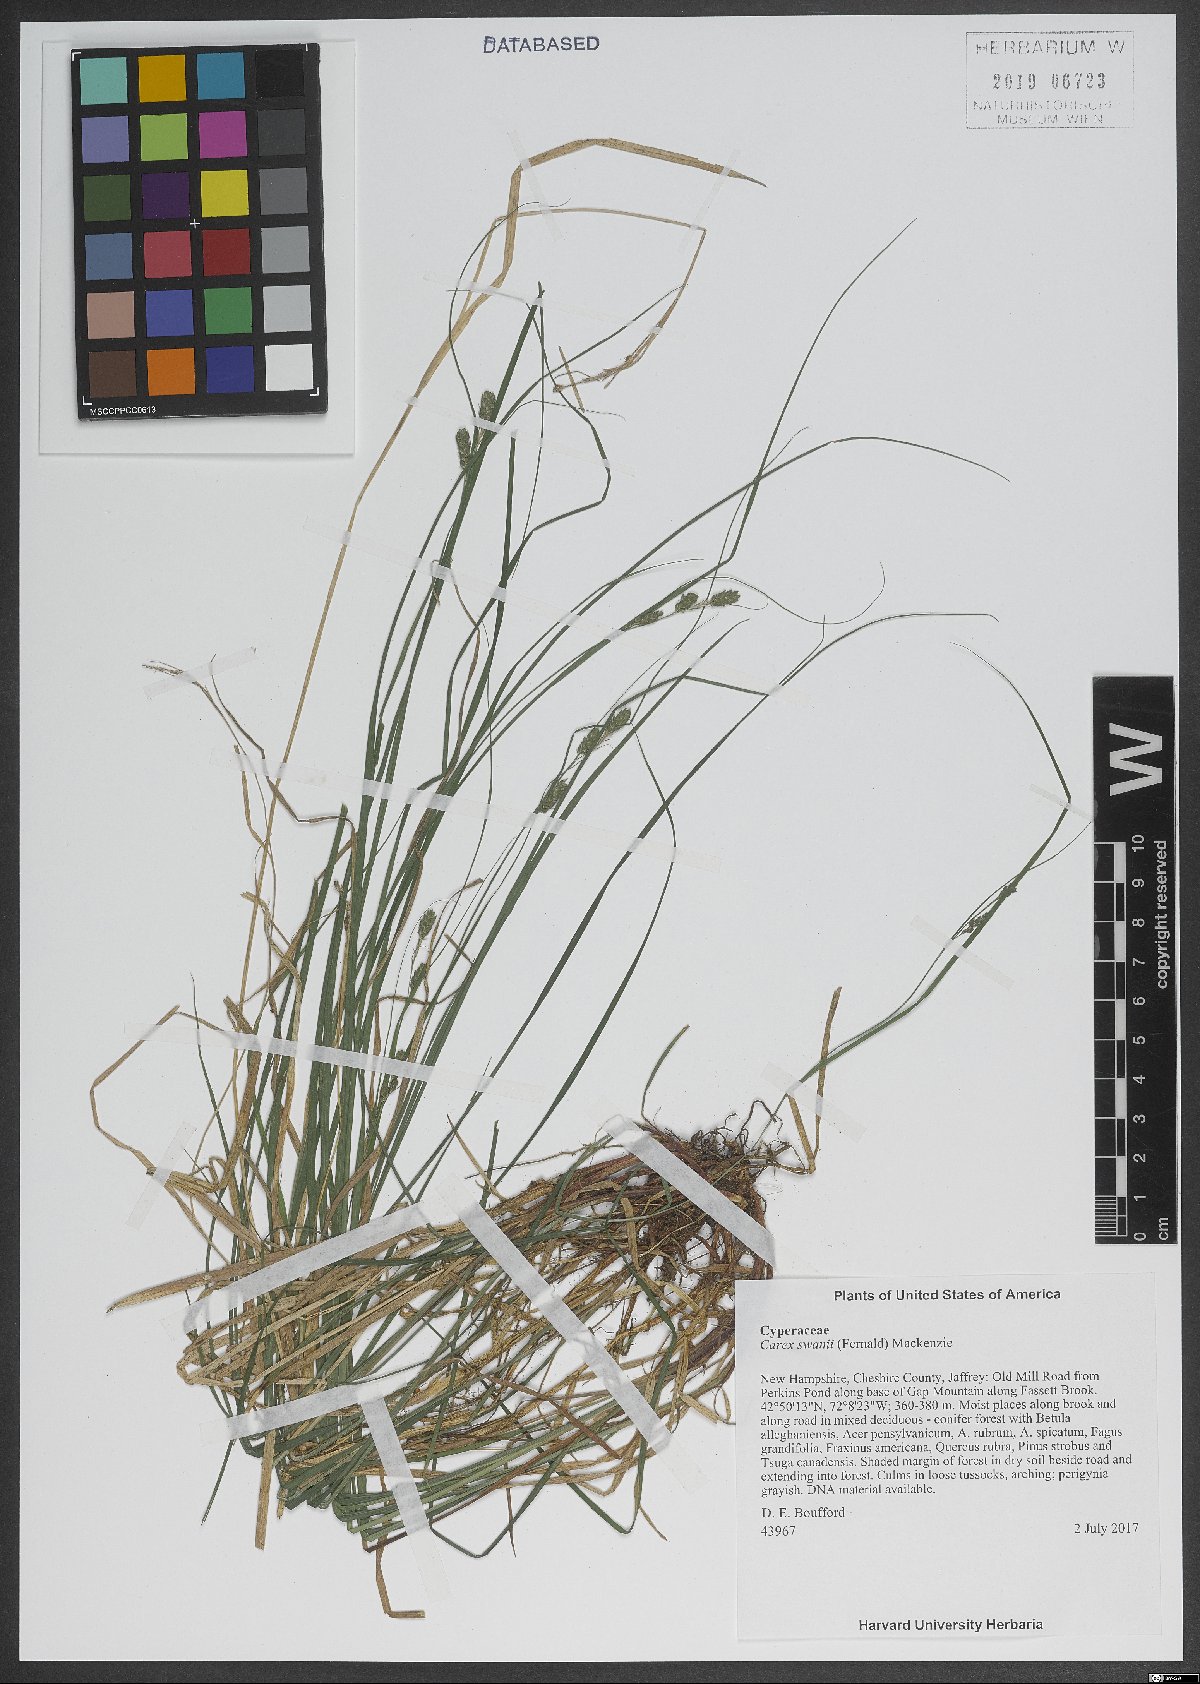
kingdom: Plantae
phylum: Tracheophyta
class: Liliopsida
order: Poales
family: Cyperaceae
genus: Carex
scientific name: Carex swanii
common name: Downy green sedge
